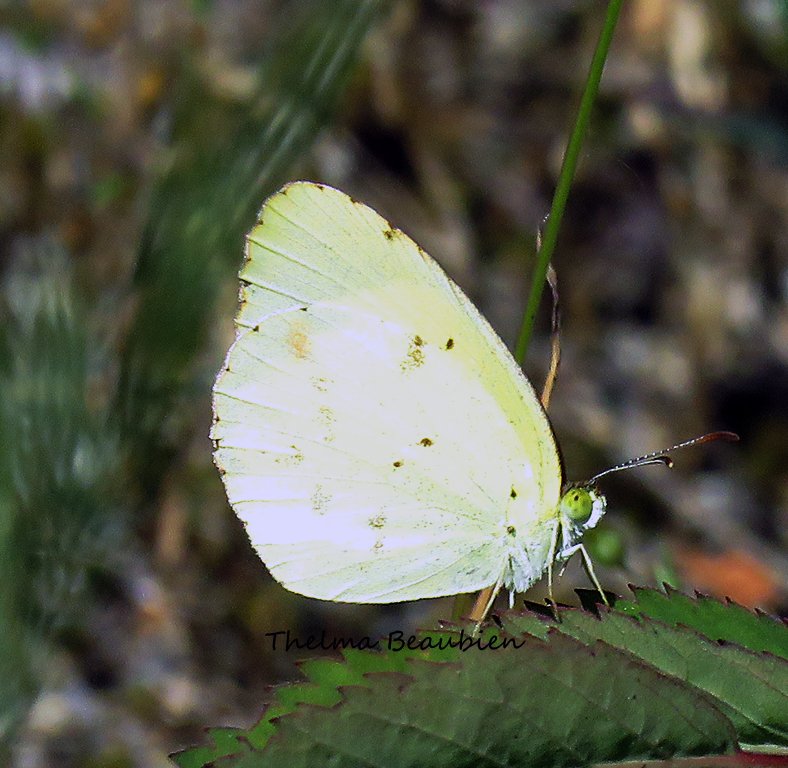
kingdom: Animalia
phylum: Arthropoda
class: Insecta
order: Lepidoptera
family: Pieridae
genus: Pyrisitia
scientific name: Pyrisitia lisa
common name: Little Yellow
